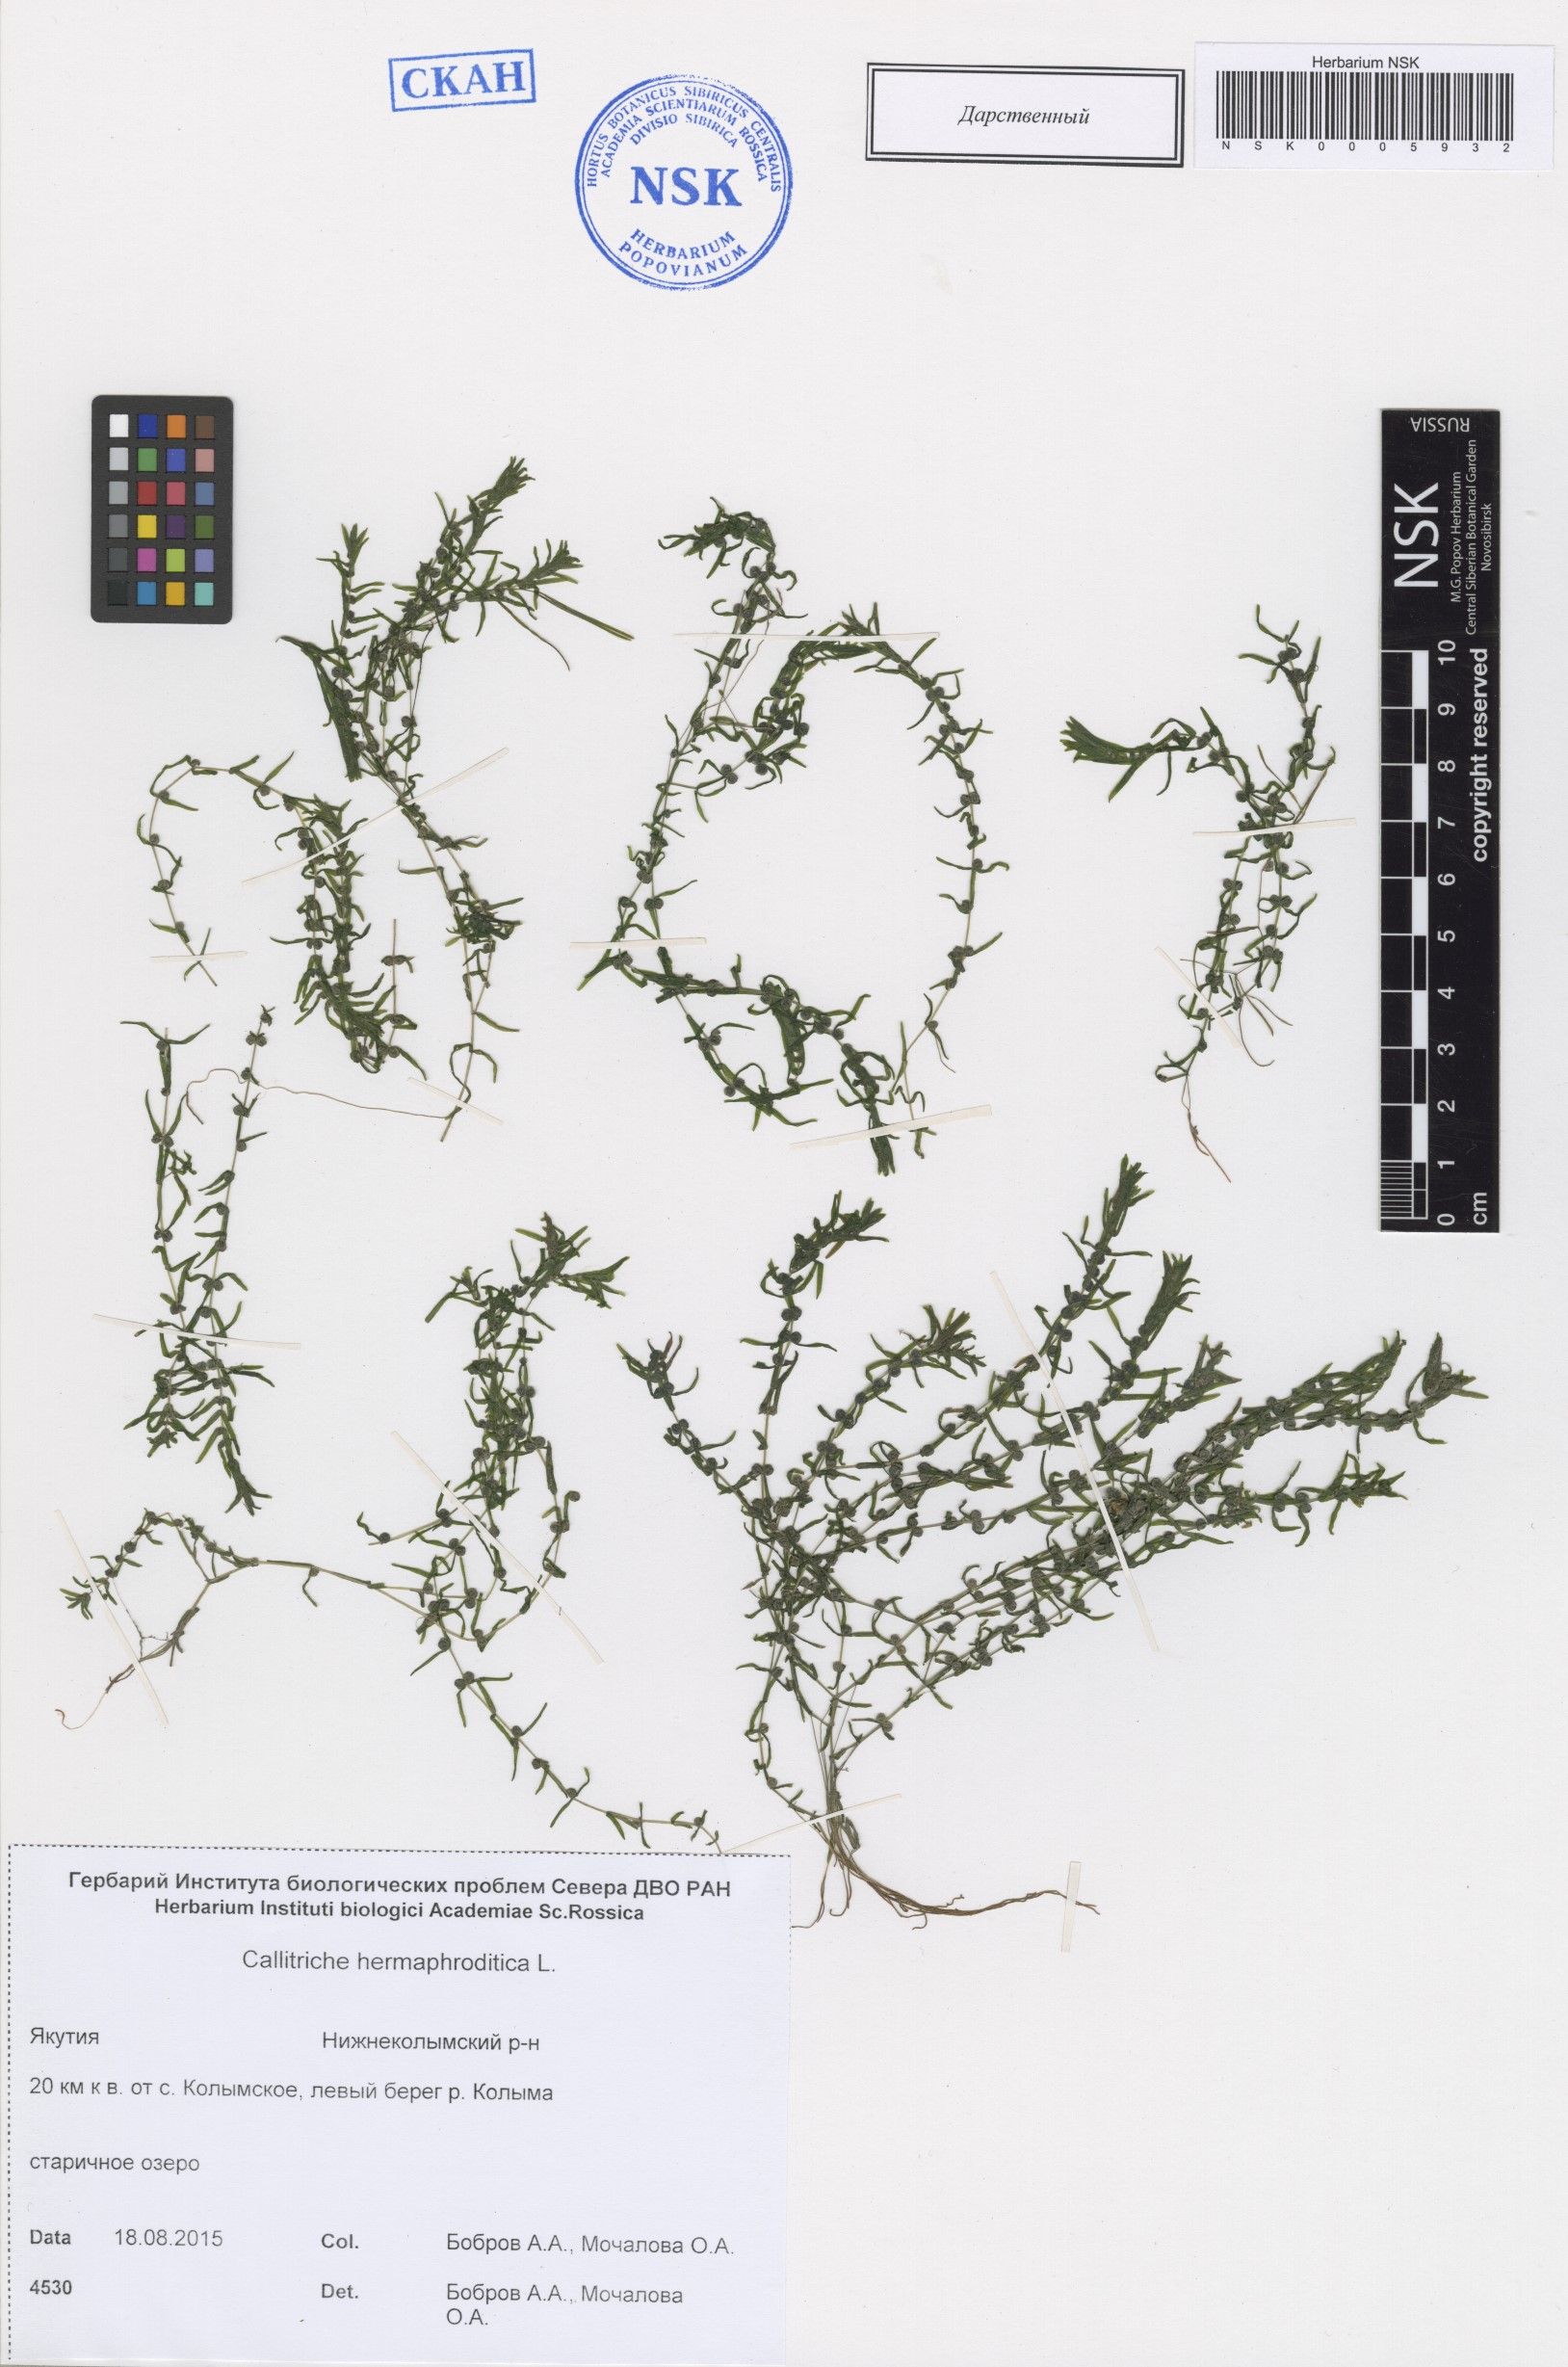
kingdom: Plantae
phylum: Tracheophyta
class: Magnoliopsida
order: Lamiales
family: Plantaginaceae
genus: Callitriche
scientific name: Callitriche hermaphroditica
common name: Autumnal water-starwort
